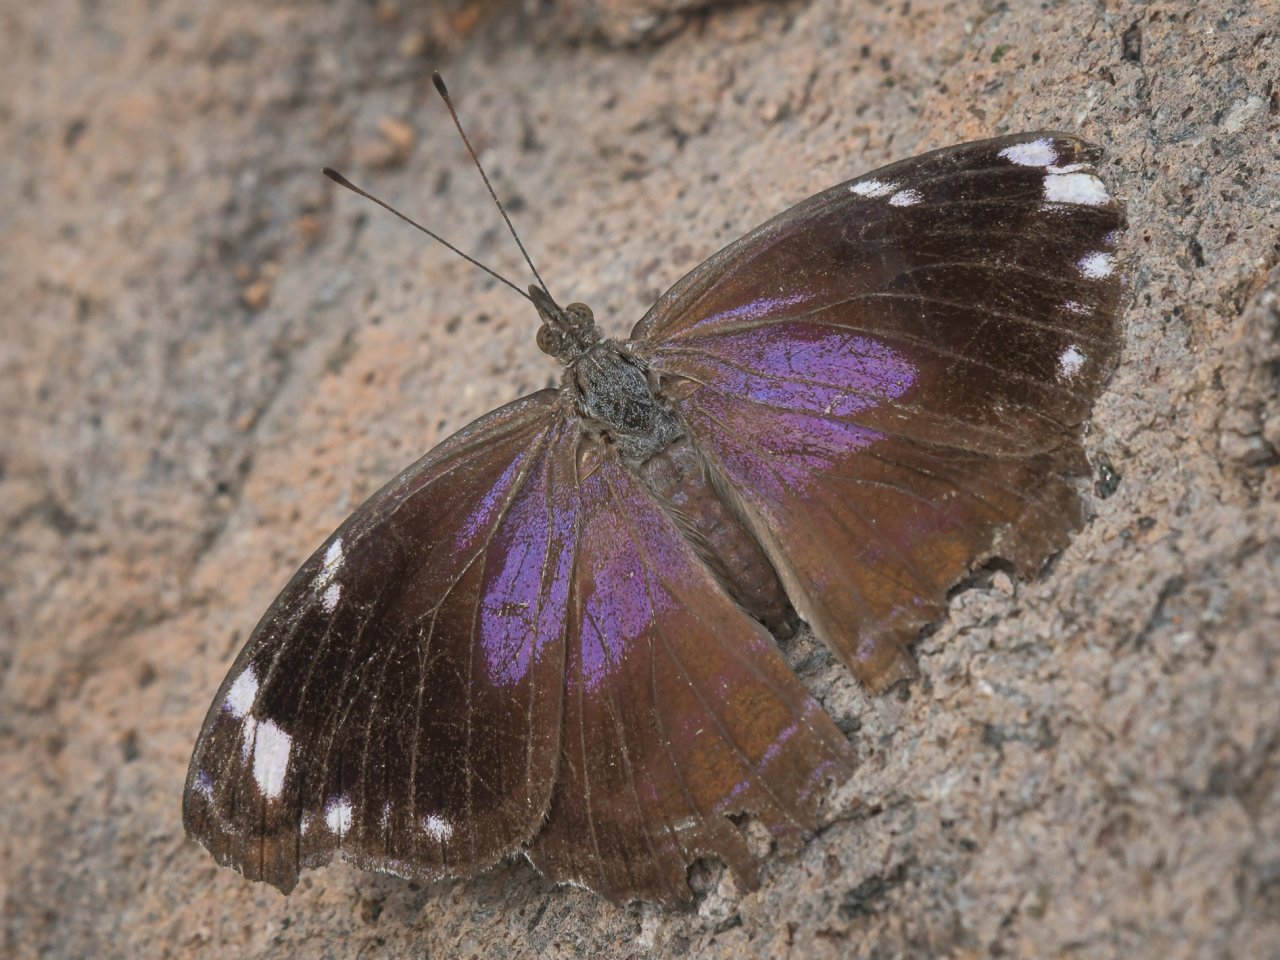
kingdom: Animalia
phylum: Arthropoda
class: Insecta
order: Lepidoptera
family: Nymphalidae
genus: Myscelia
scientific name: Myscelia cyananthe
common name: Blackened Bluewing
